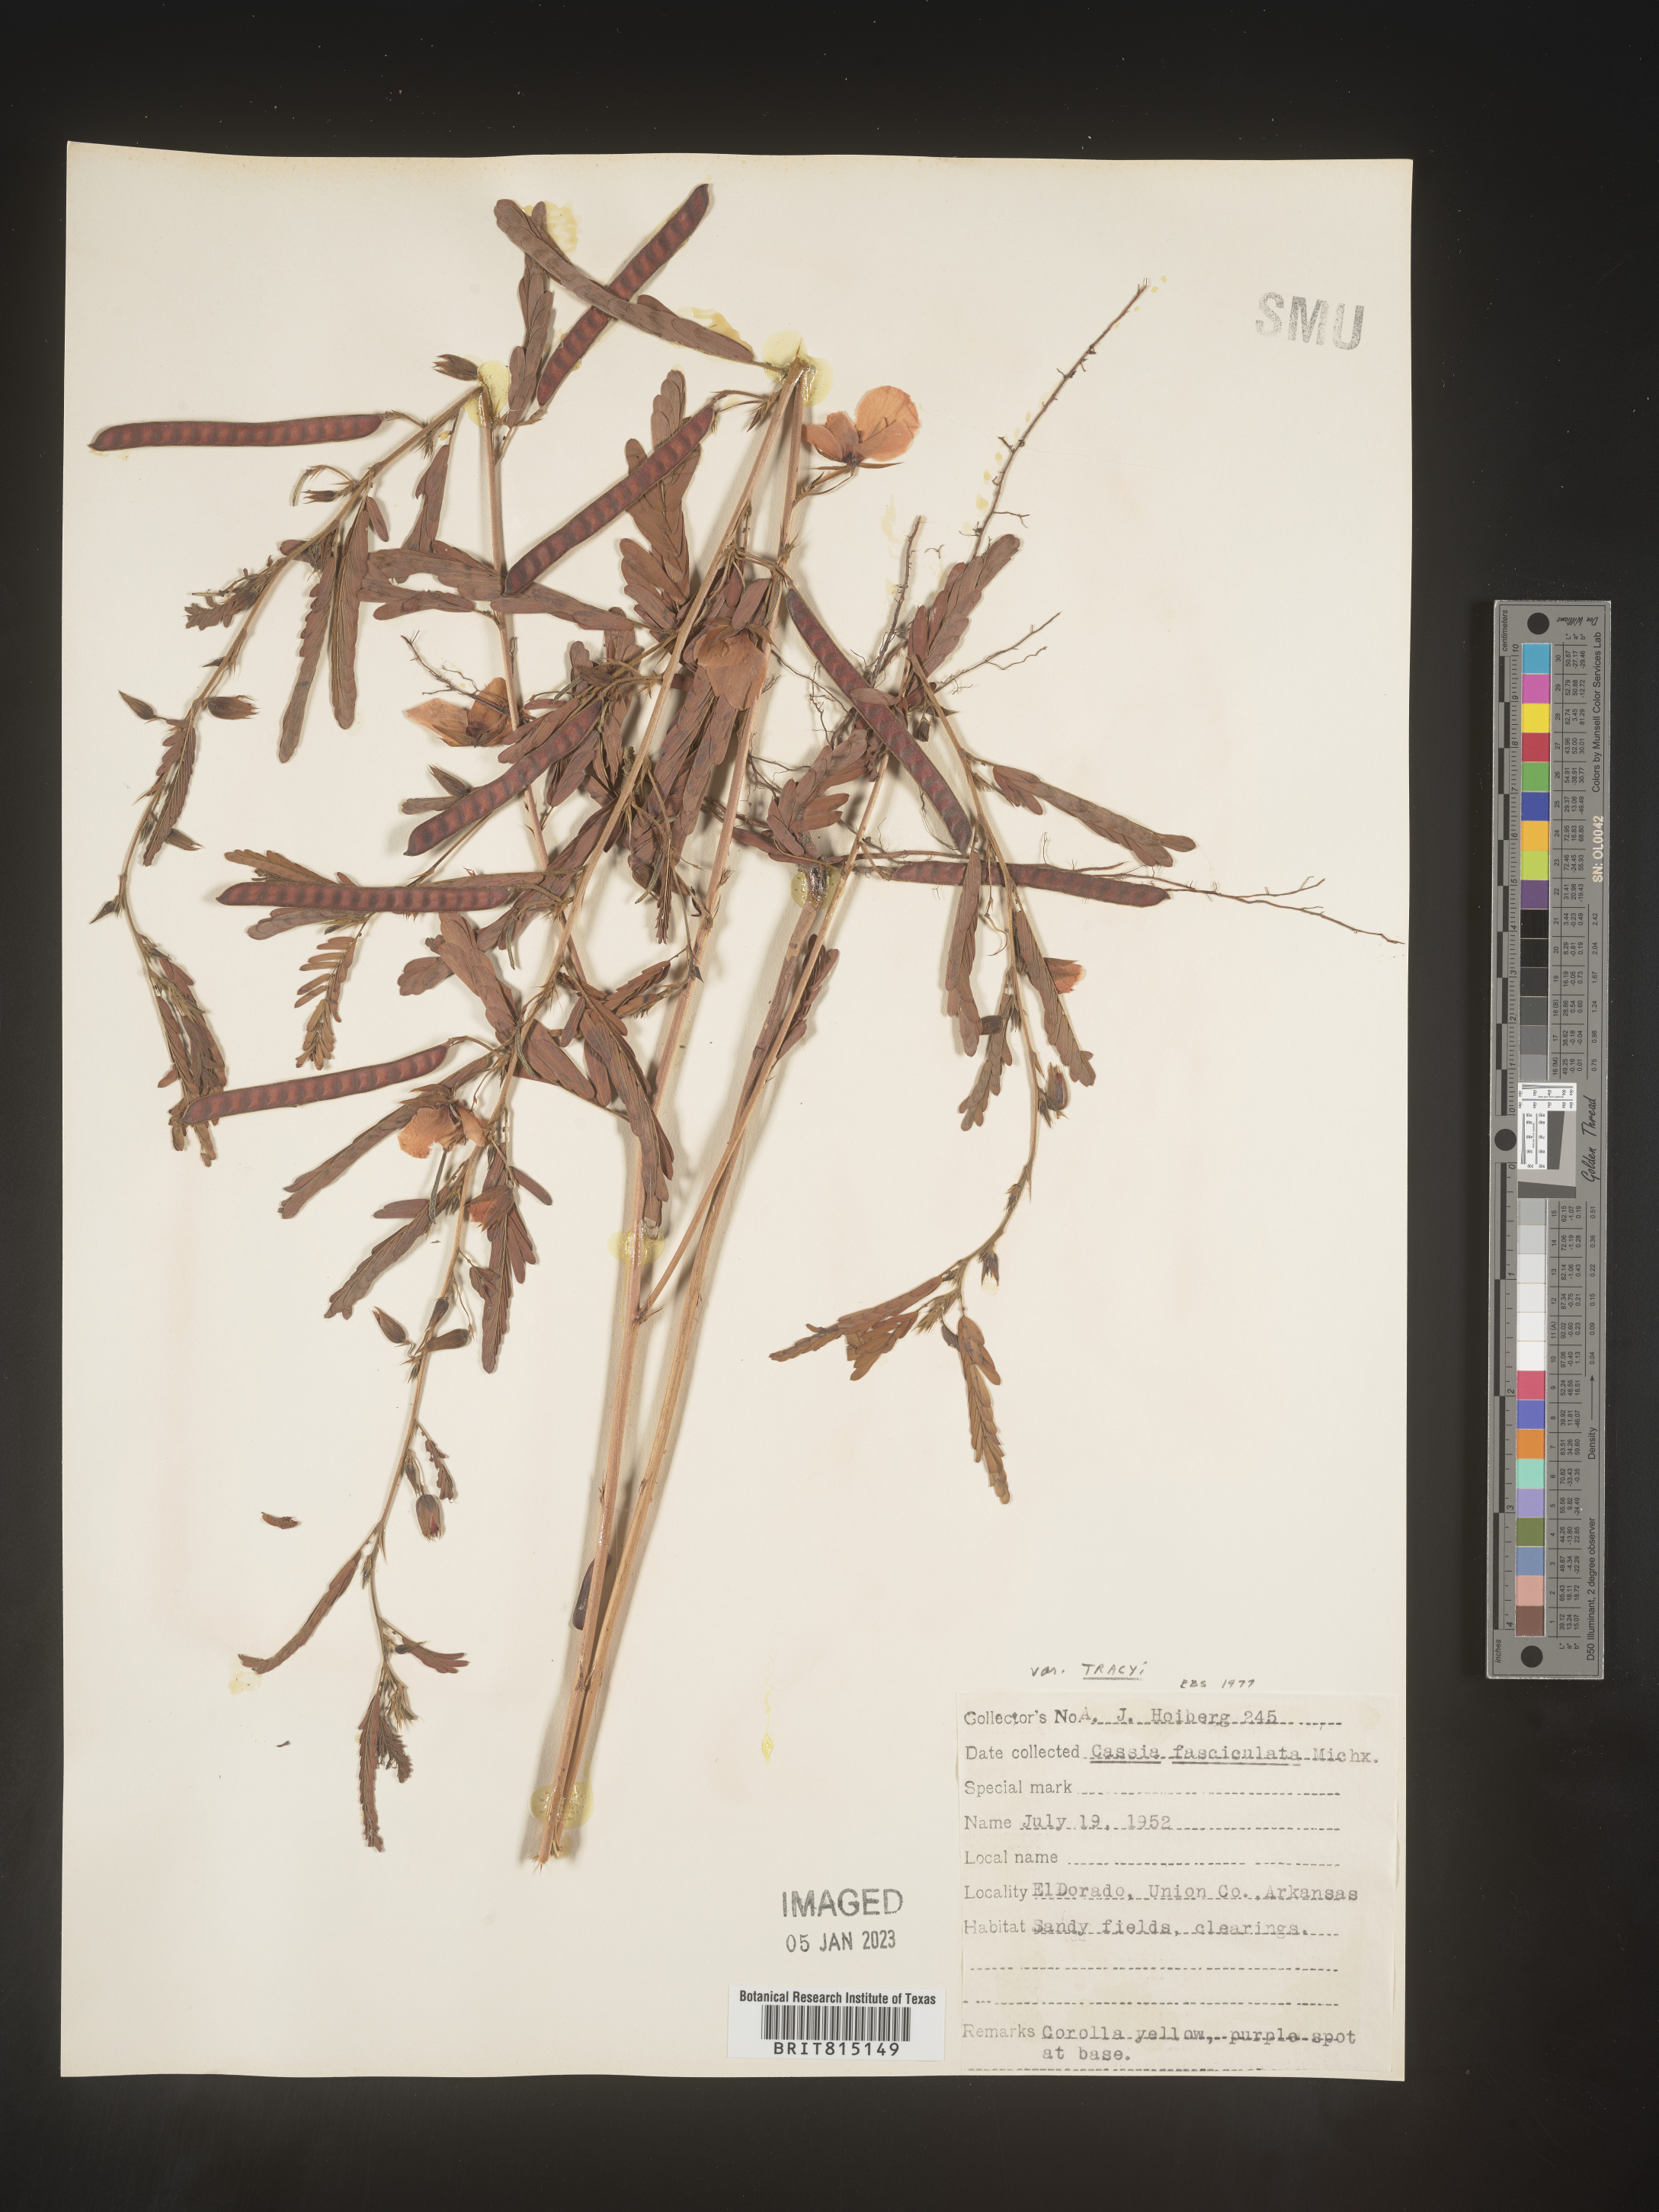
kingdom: Plantae
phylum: Tracheophyta
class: Magnoliopsida
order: Fabales
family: Fabaceae
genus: Chamaecrista
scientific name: Chamaecrista fasciculata
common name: Golden cassia
